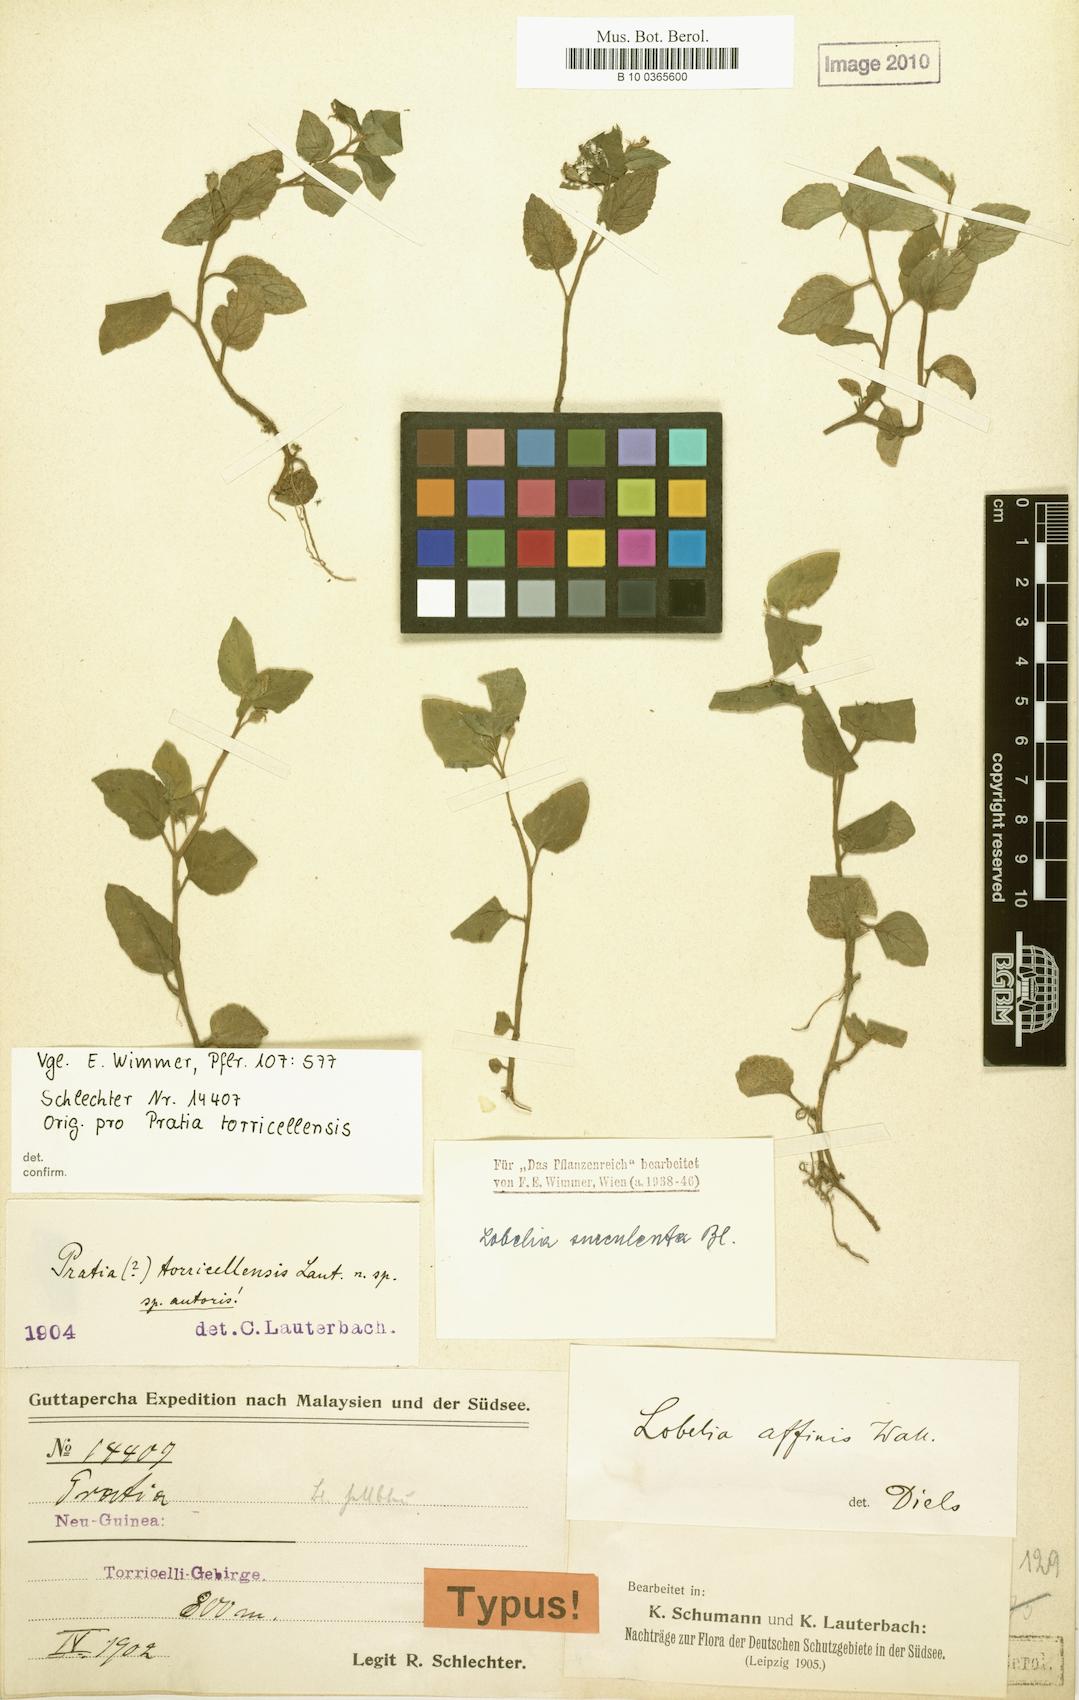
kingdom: Plantae
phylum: Tracheophyta
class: Magnoliopsida
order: Asterales
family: Campanulaceae
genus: Lobelia
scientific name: Lobelia zeylanica
